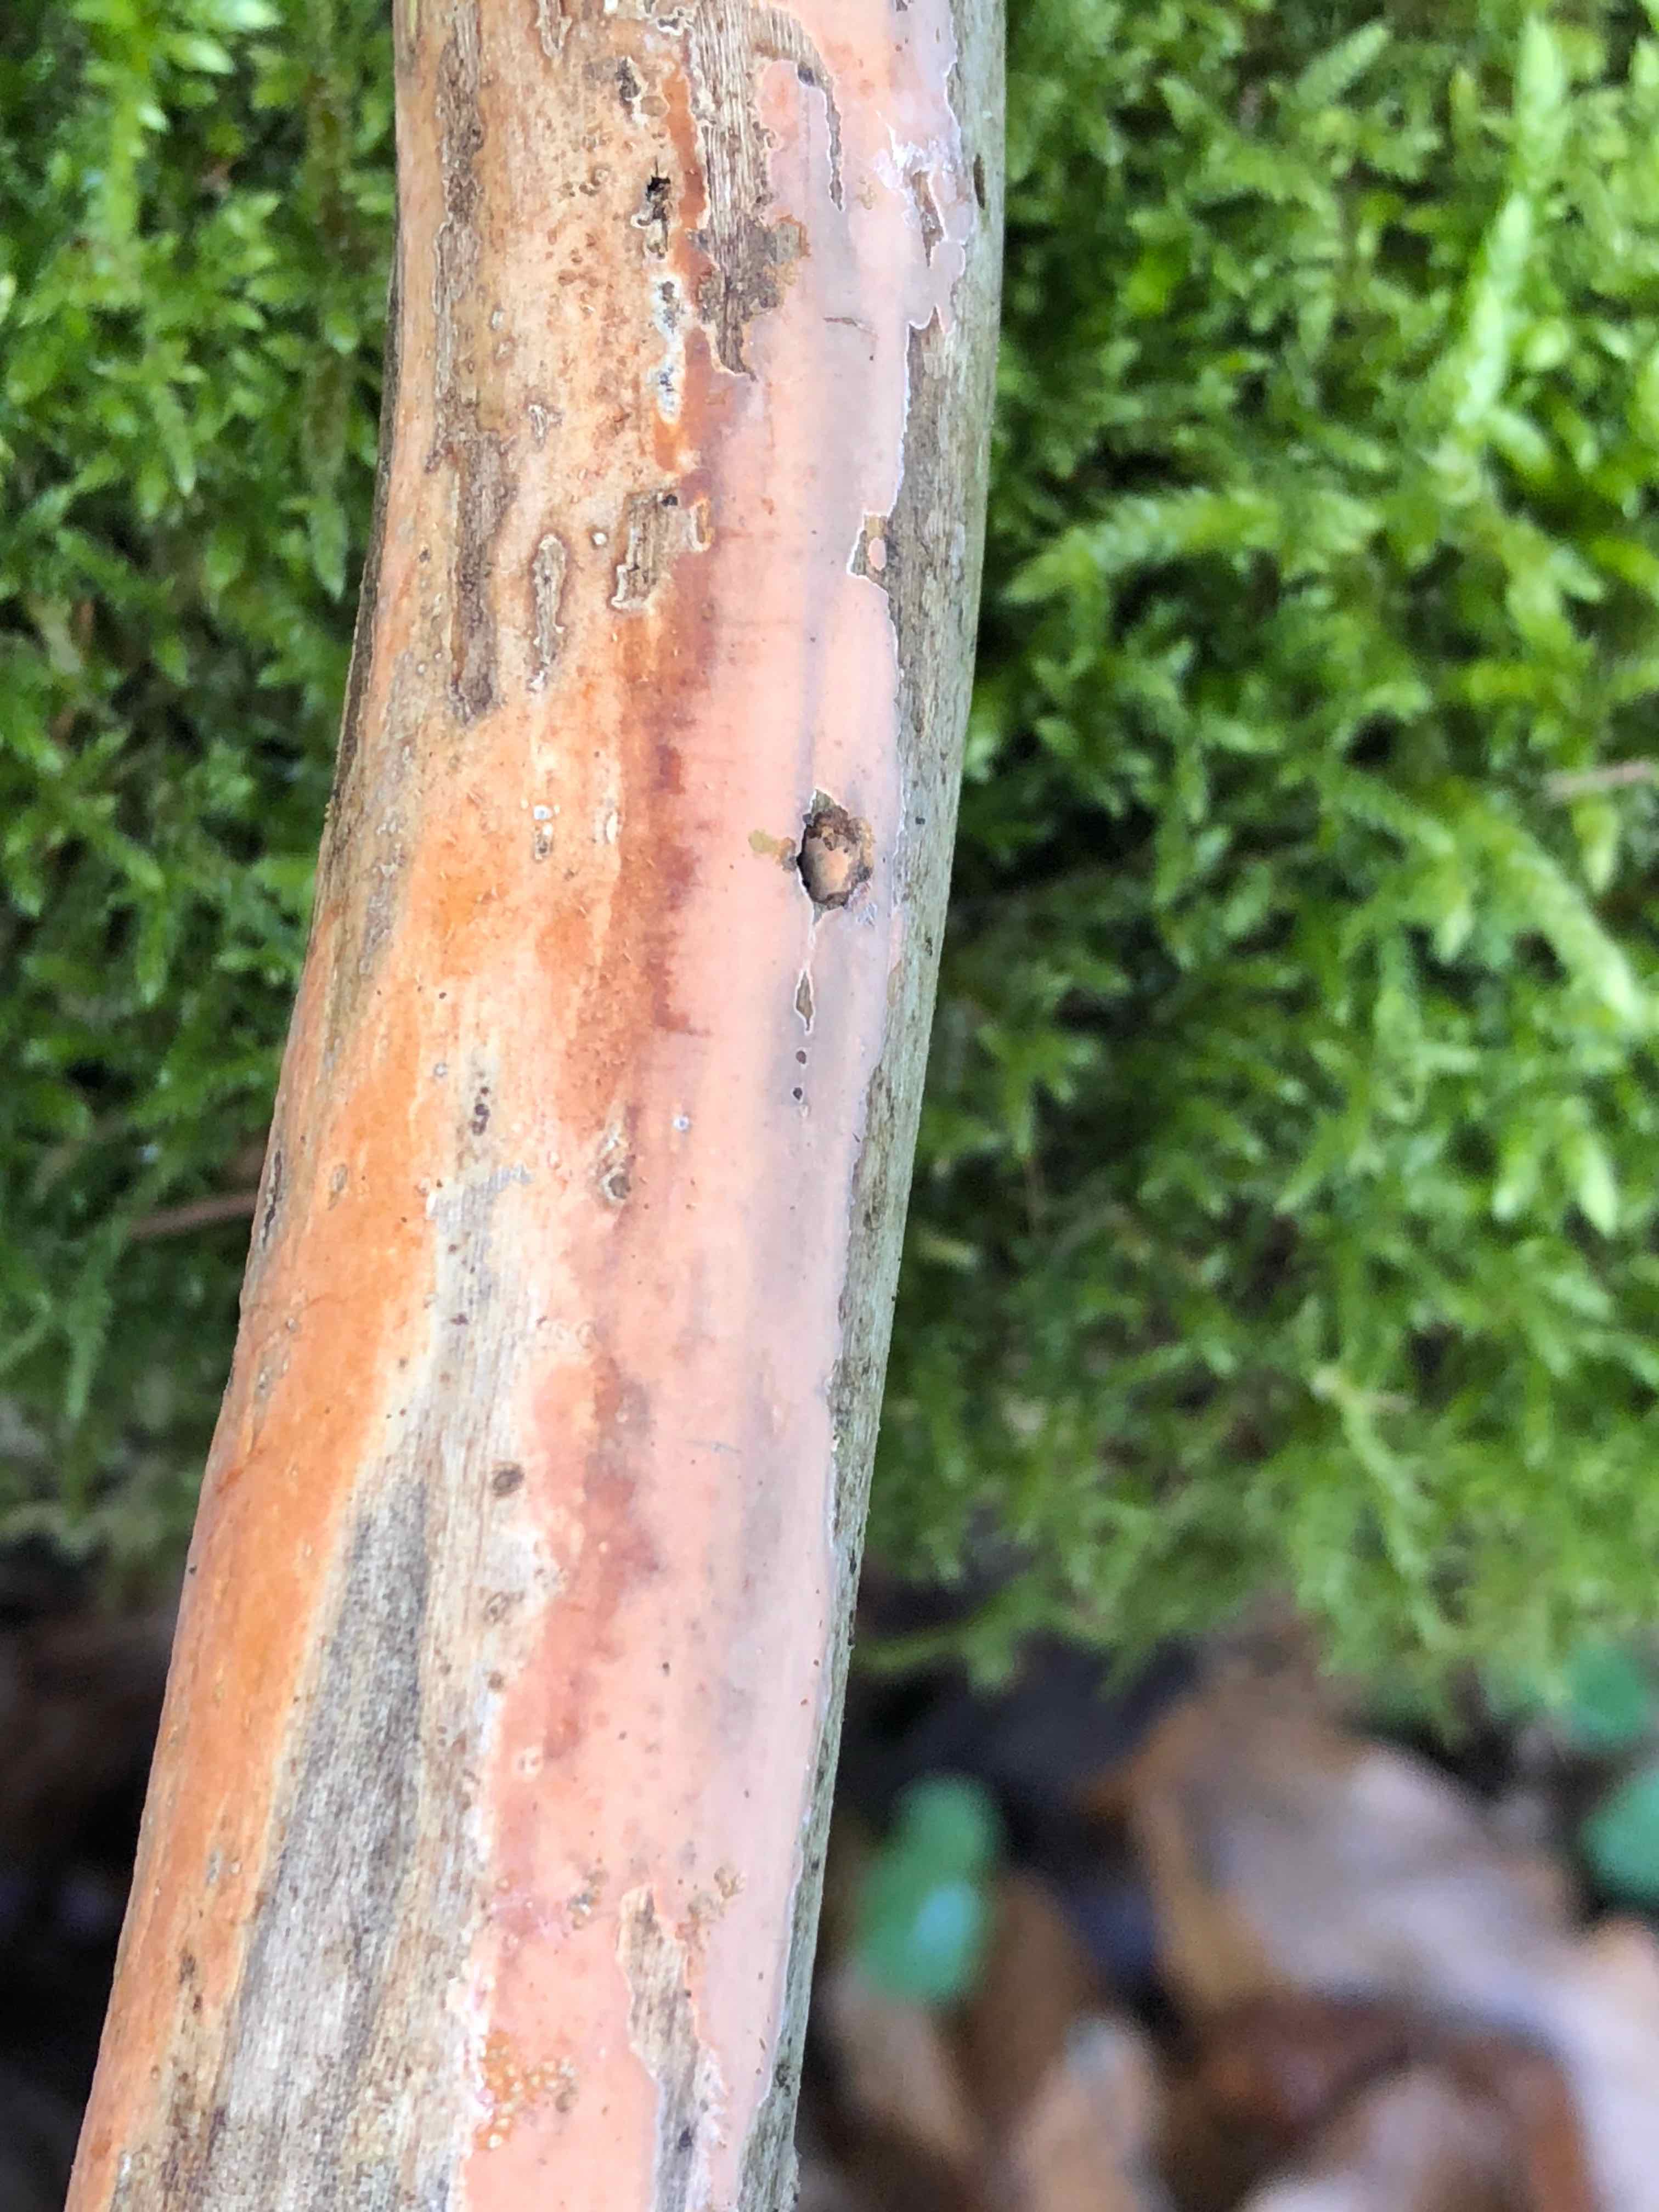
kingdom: Fungi
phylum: Basidiomycota
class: Agaricomycetes
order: Russulales
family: Peniophoraceae
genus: Peniophora
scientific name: Peniophora incarnata
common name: laksefarvet voksskind
